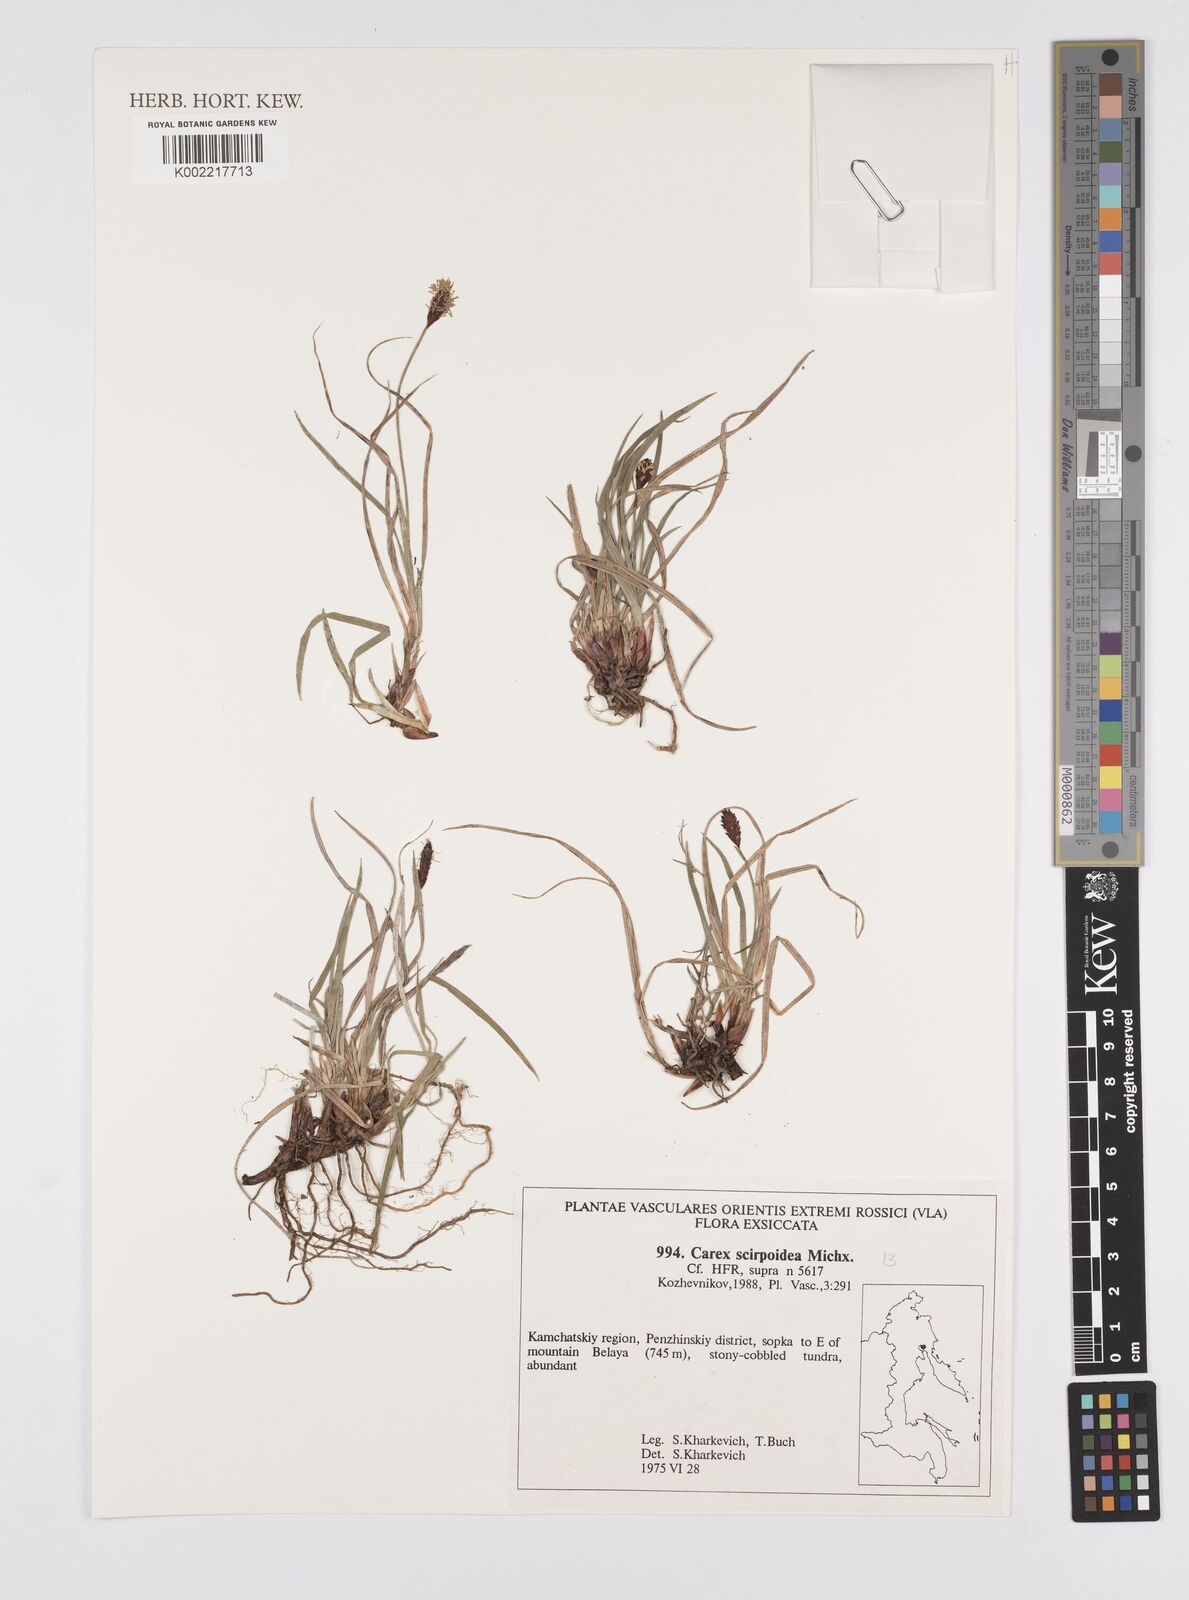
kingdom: Plantae
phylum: Tracheophyta
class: Liliopsida
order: Poales
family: Cyperaceae
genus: Carex
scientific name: Carex scirpoidea
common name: Canada single-spike sedge
